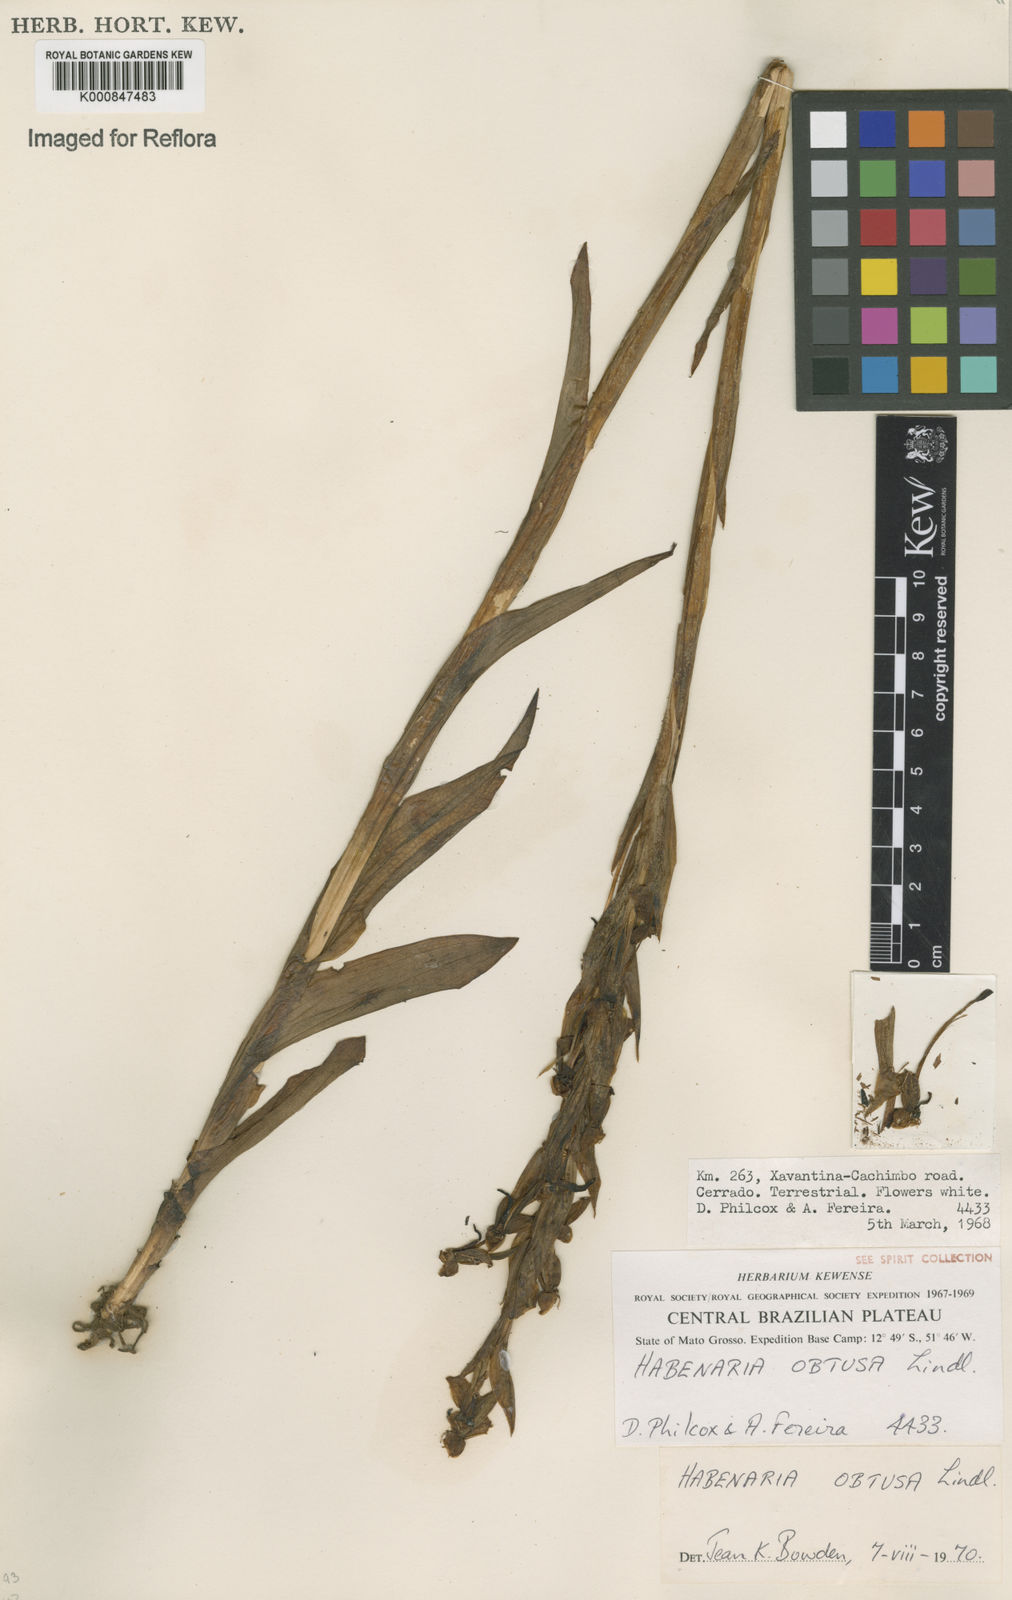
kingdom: Plantae
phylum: Tracheophyta
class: Liliopsida
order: Asparagales
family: Orchidaceae
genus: Habenaria
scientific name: Habenaria obtusa
